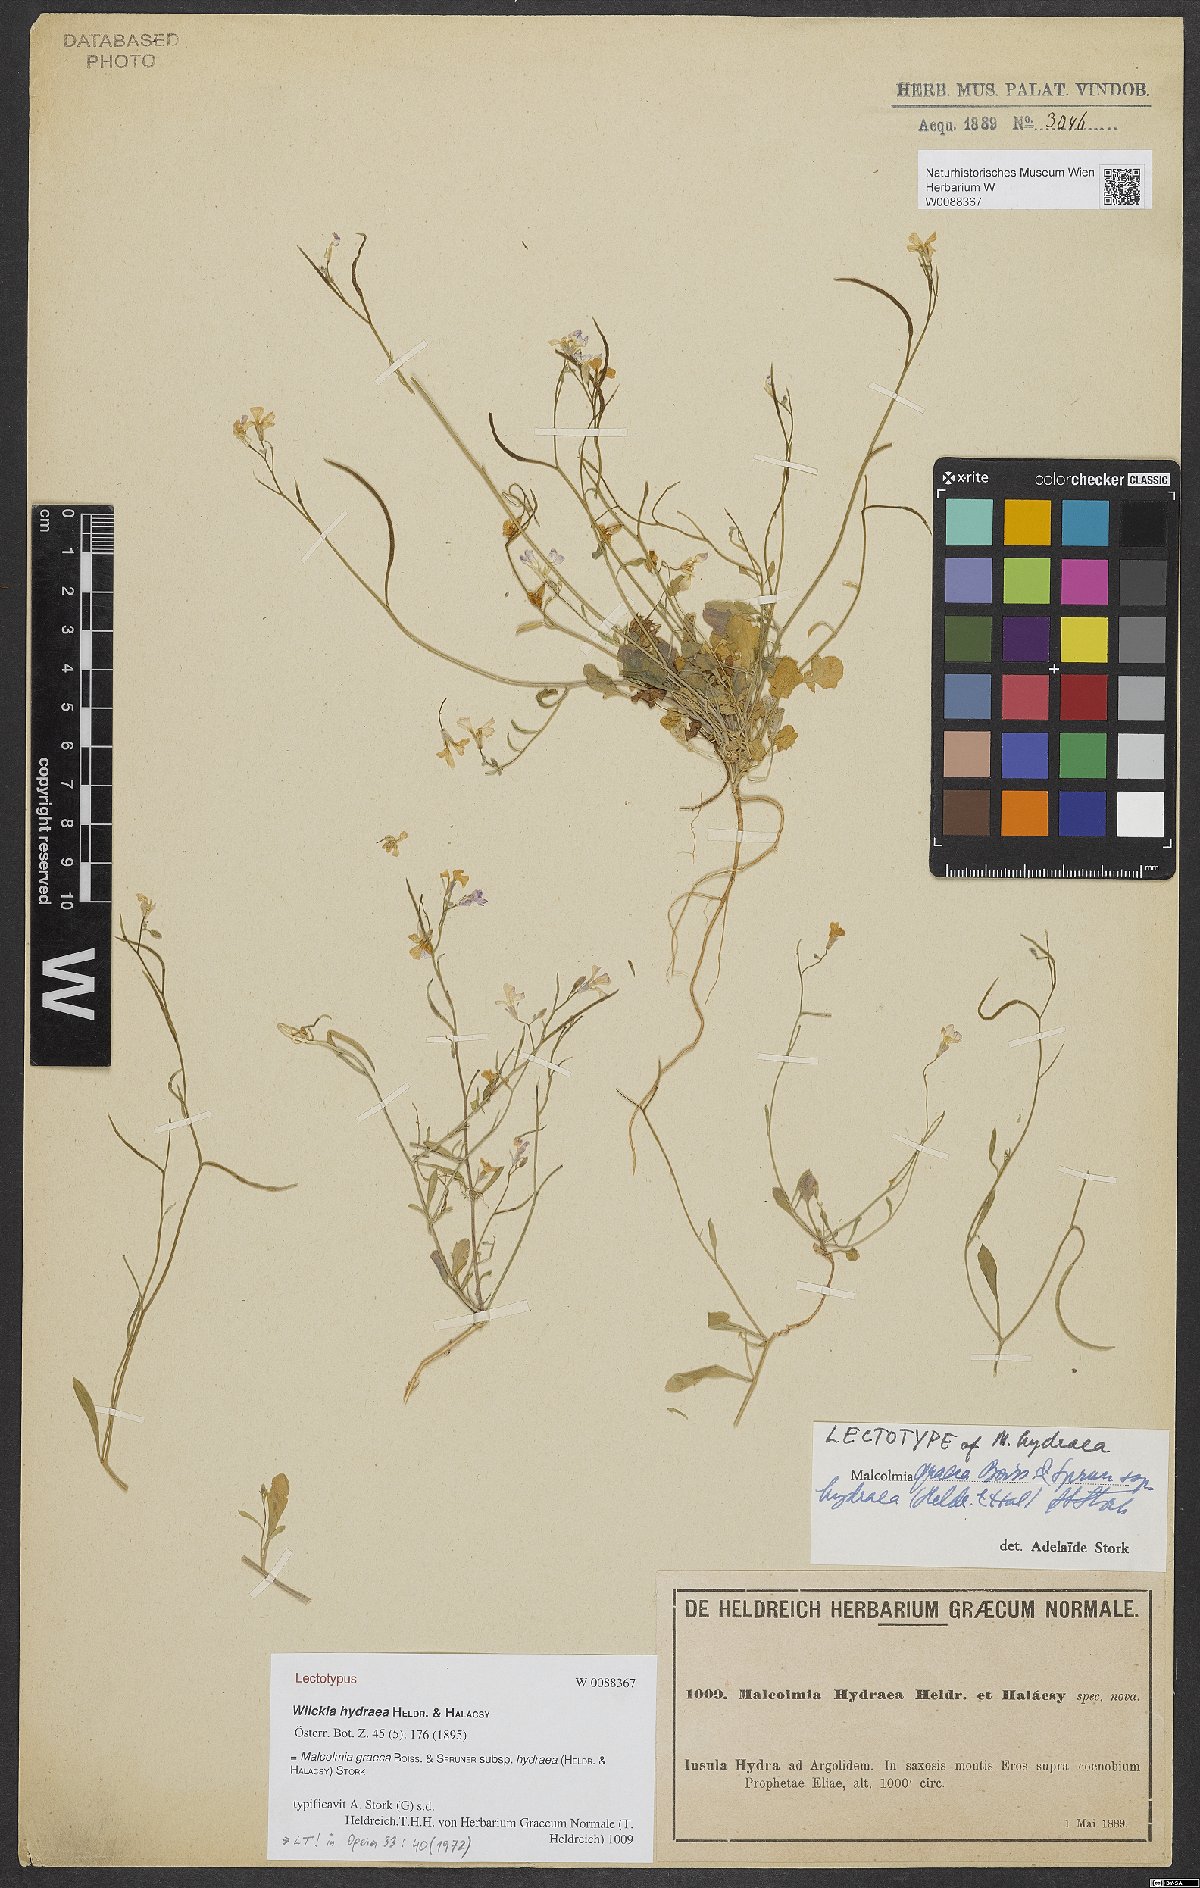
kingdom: Plantae
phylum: Tracheophyta
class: Magnoliopsida
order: Brassicales
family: Brassicaceae
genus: Malcolmia
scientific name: Malcolmia graeca
